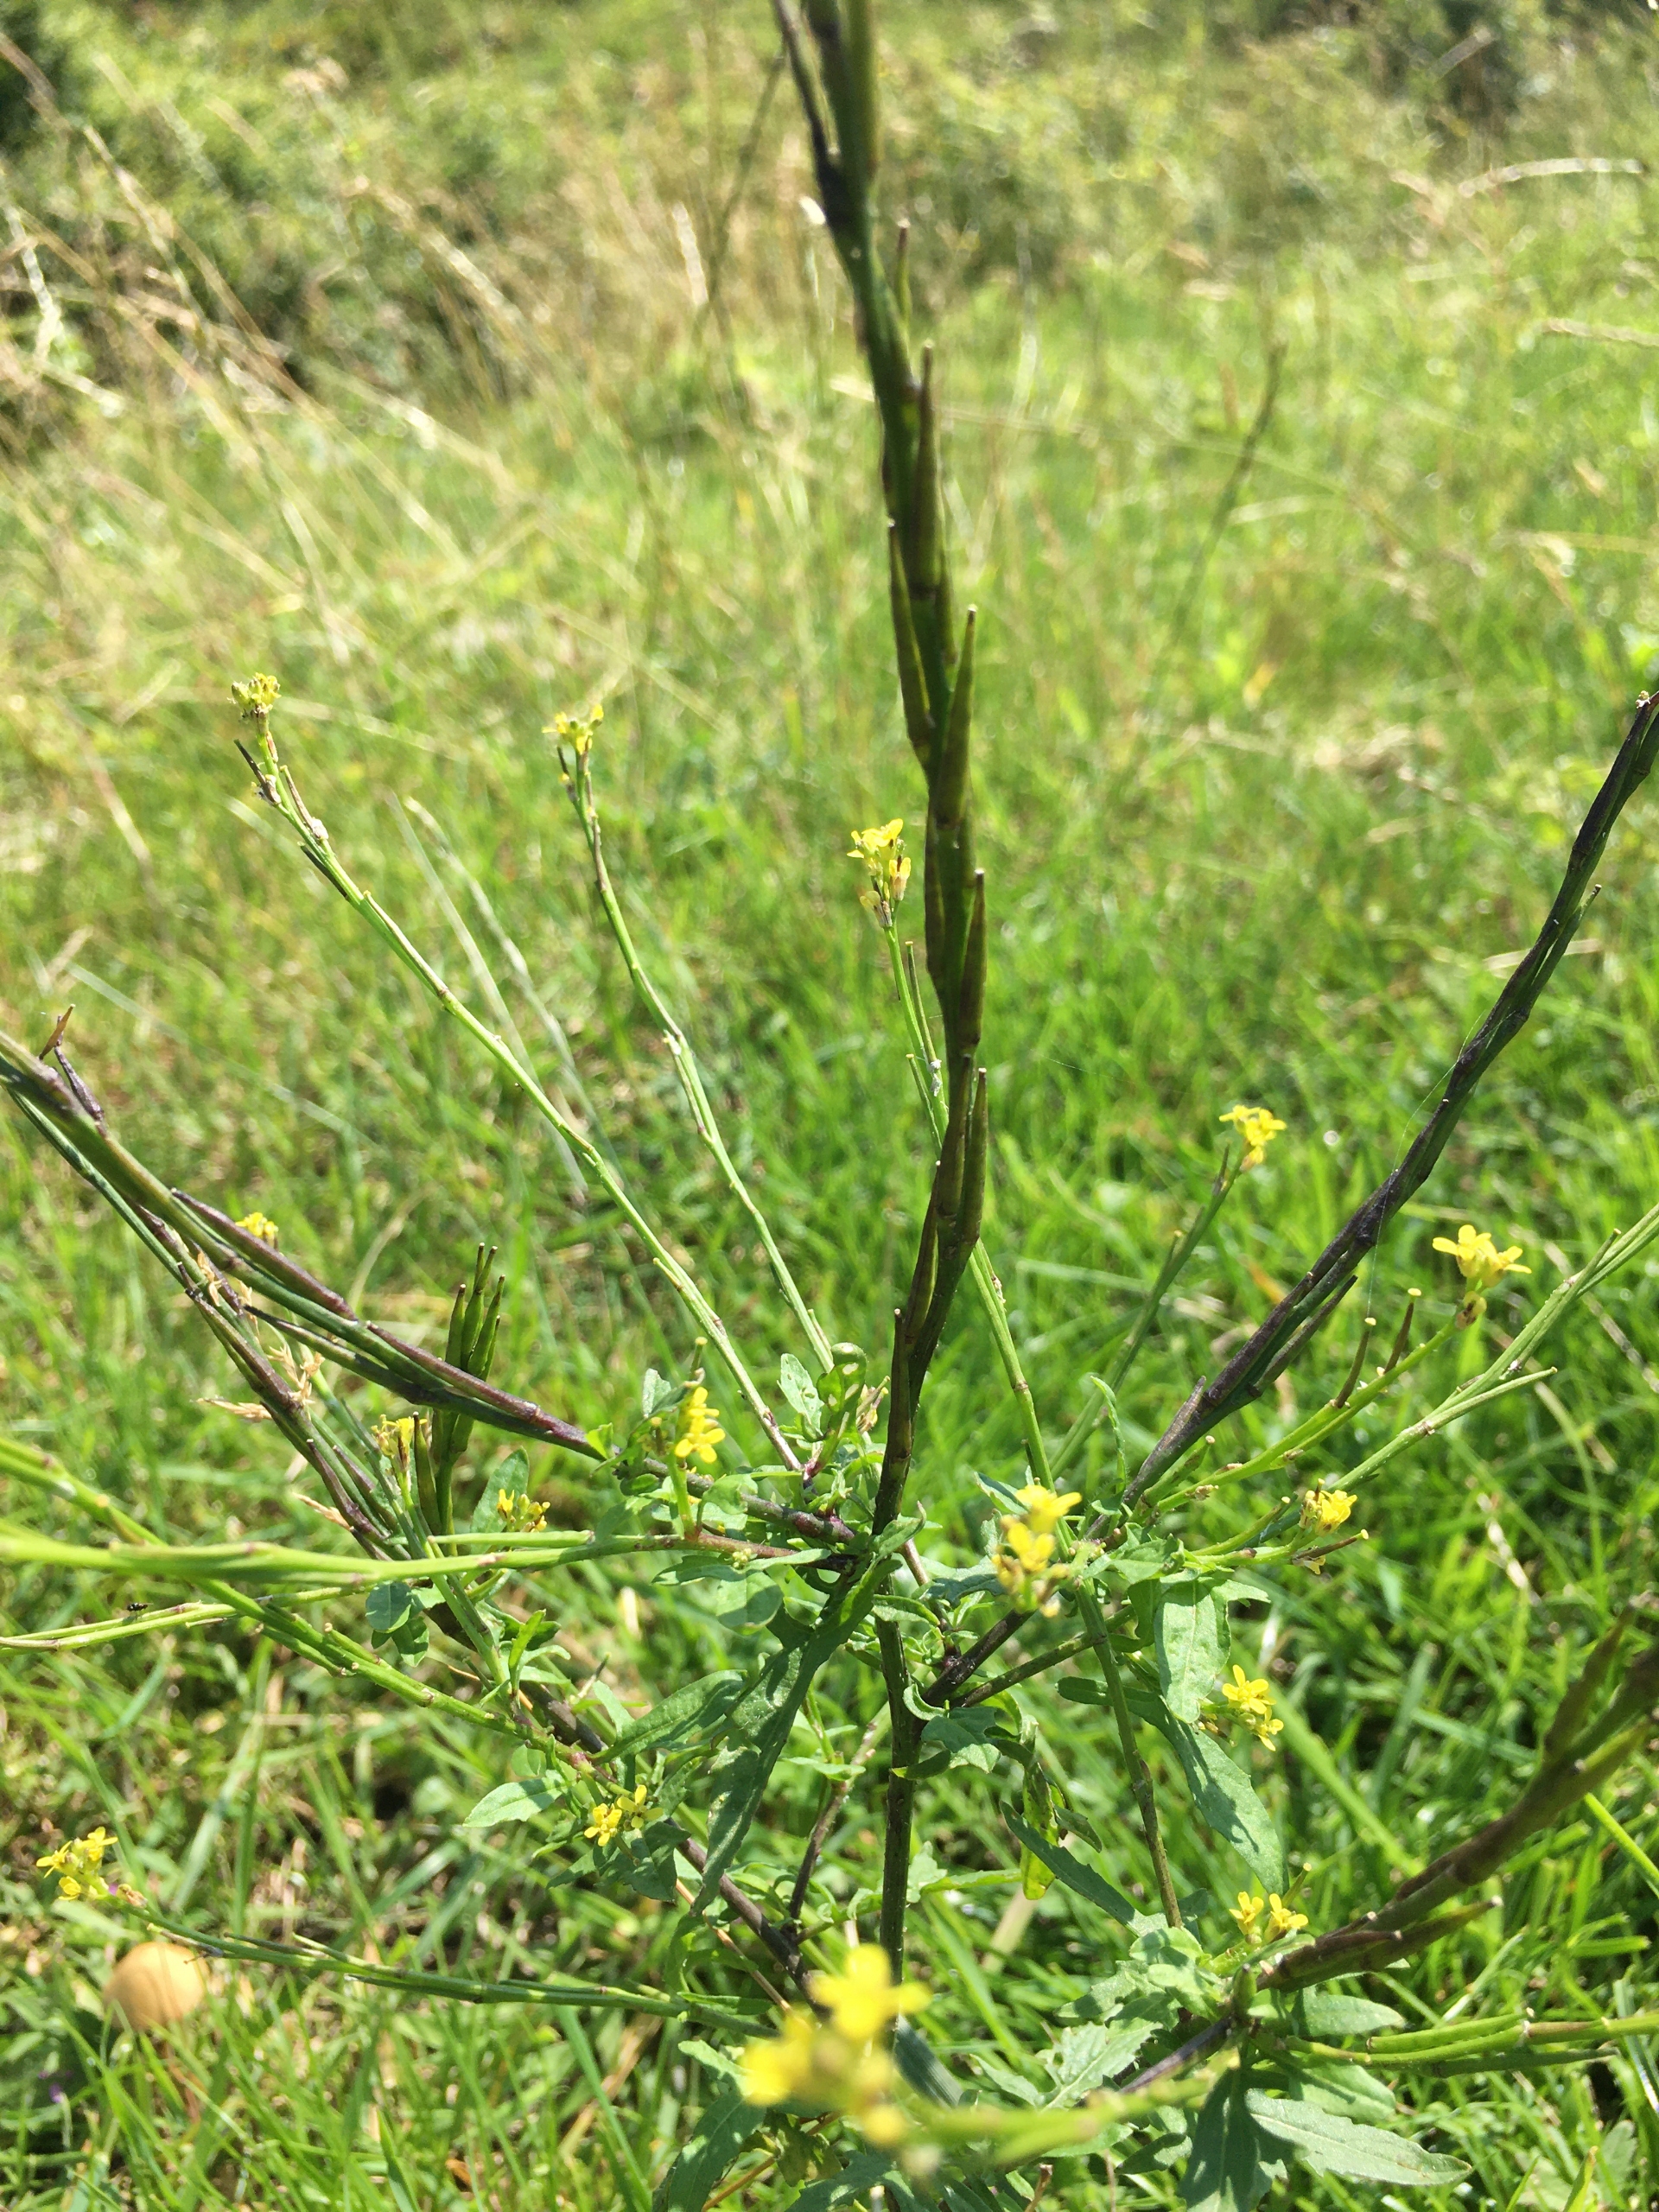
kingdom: Plantae
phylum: Tracheophyta
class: Magnoliopsida
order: Brassicales
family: Brassicaceae
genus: Sisymbrium
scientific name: Sisymbrium officinale
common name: Rank vejsennep
